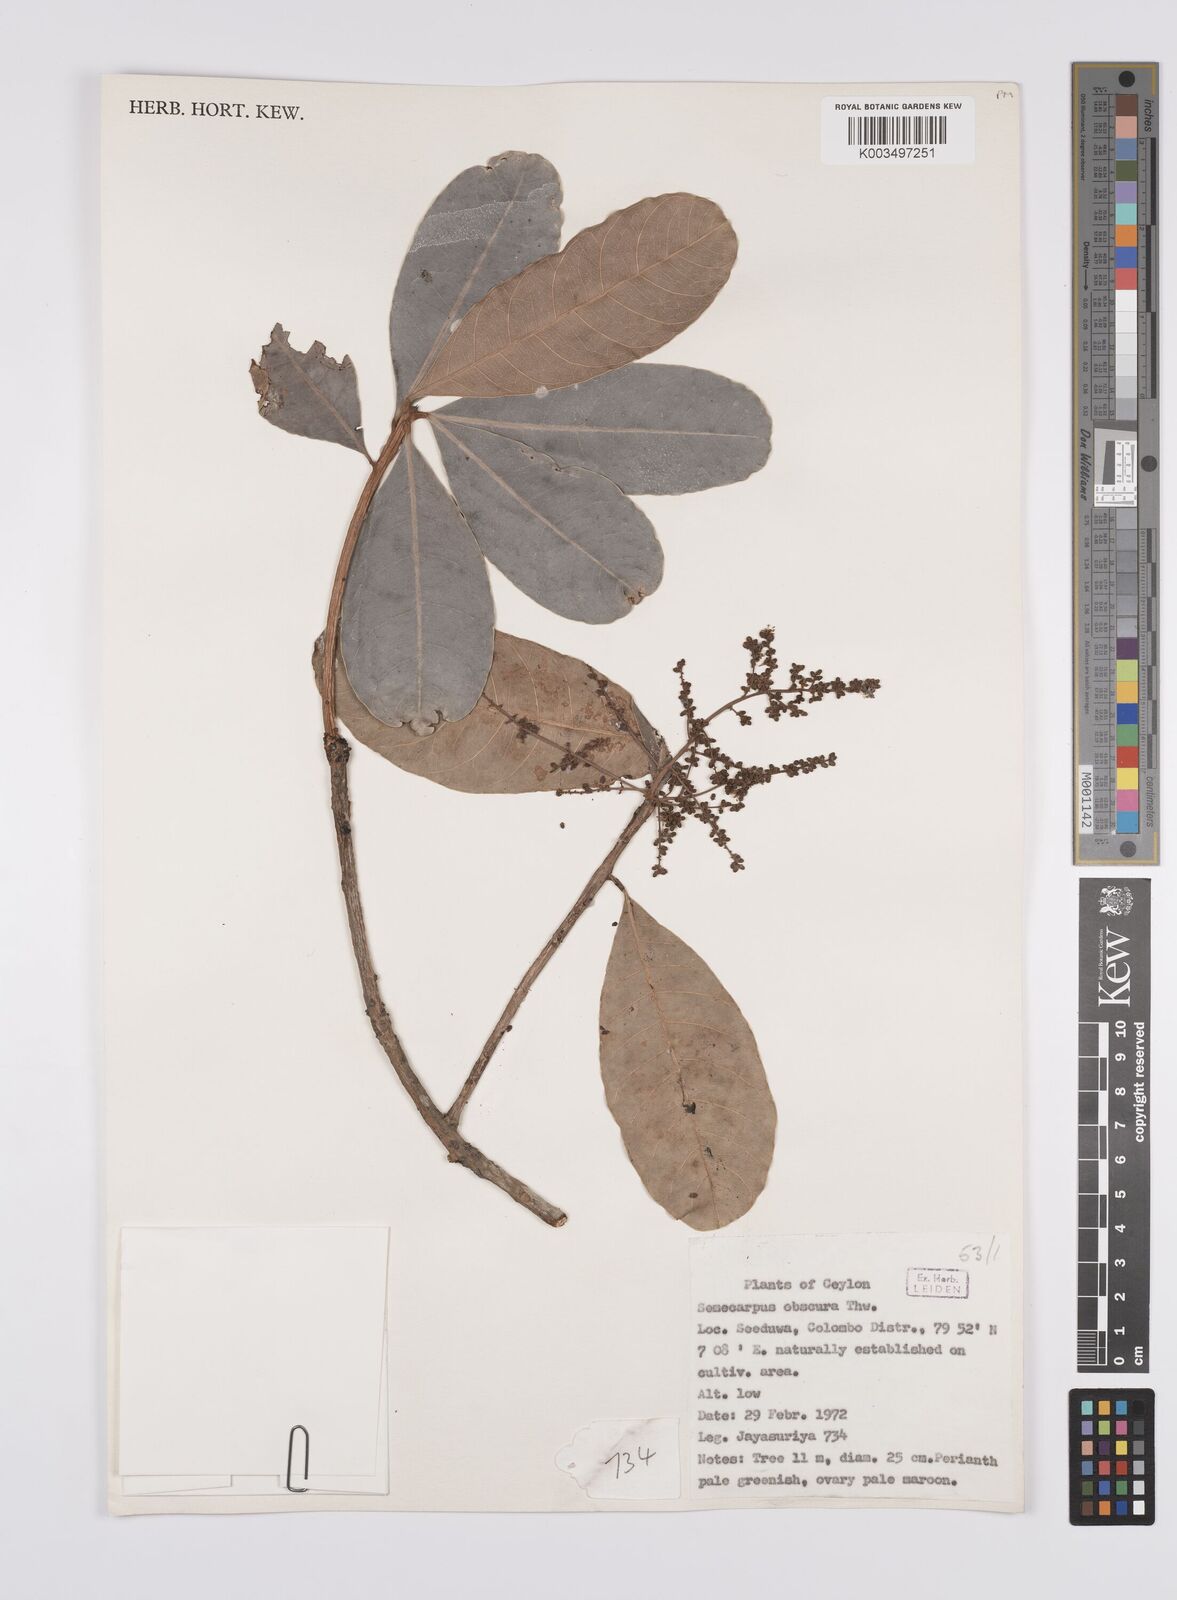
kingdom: Plantae
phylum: Tracheophyta
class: Magnoliopsida
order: Sapindales
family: Anacardiaceae
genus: Semecarpus
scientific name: Semecarpus walkeri
